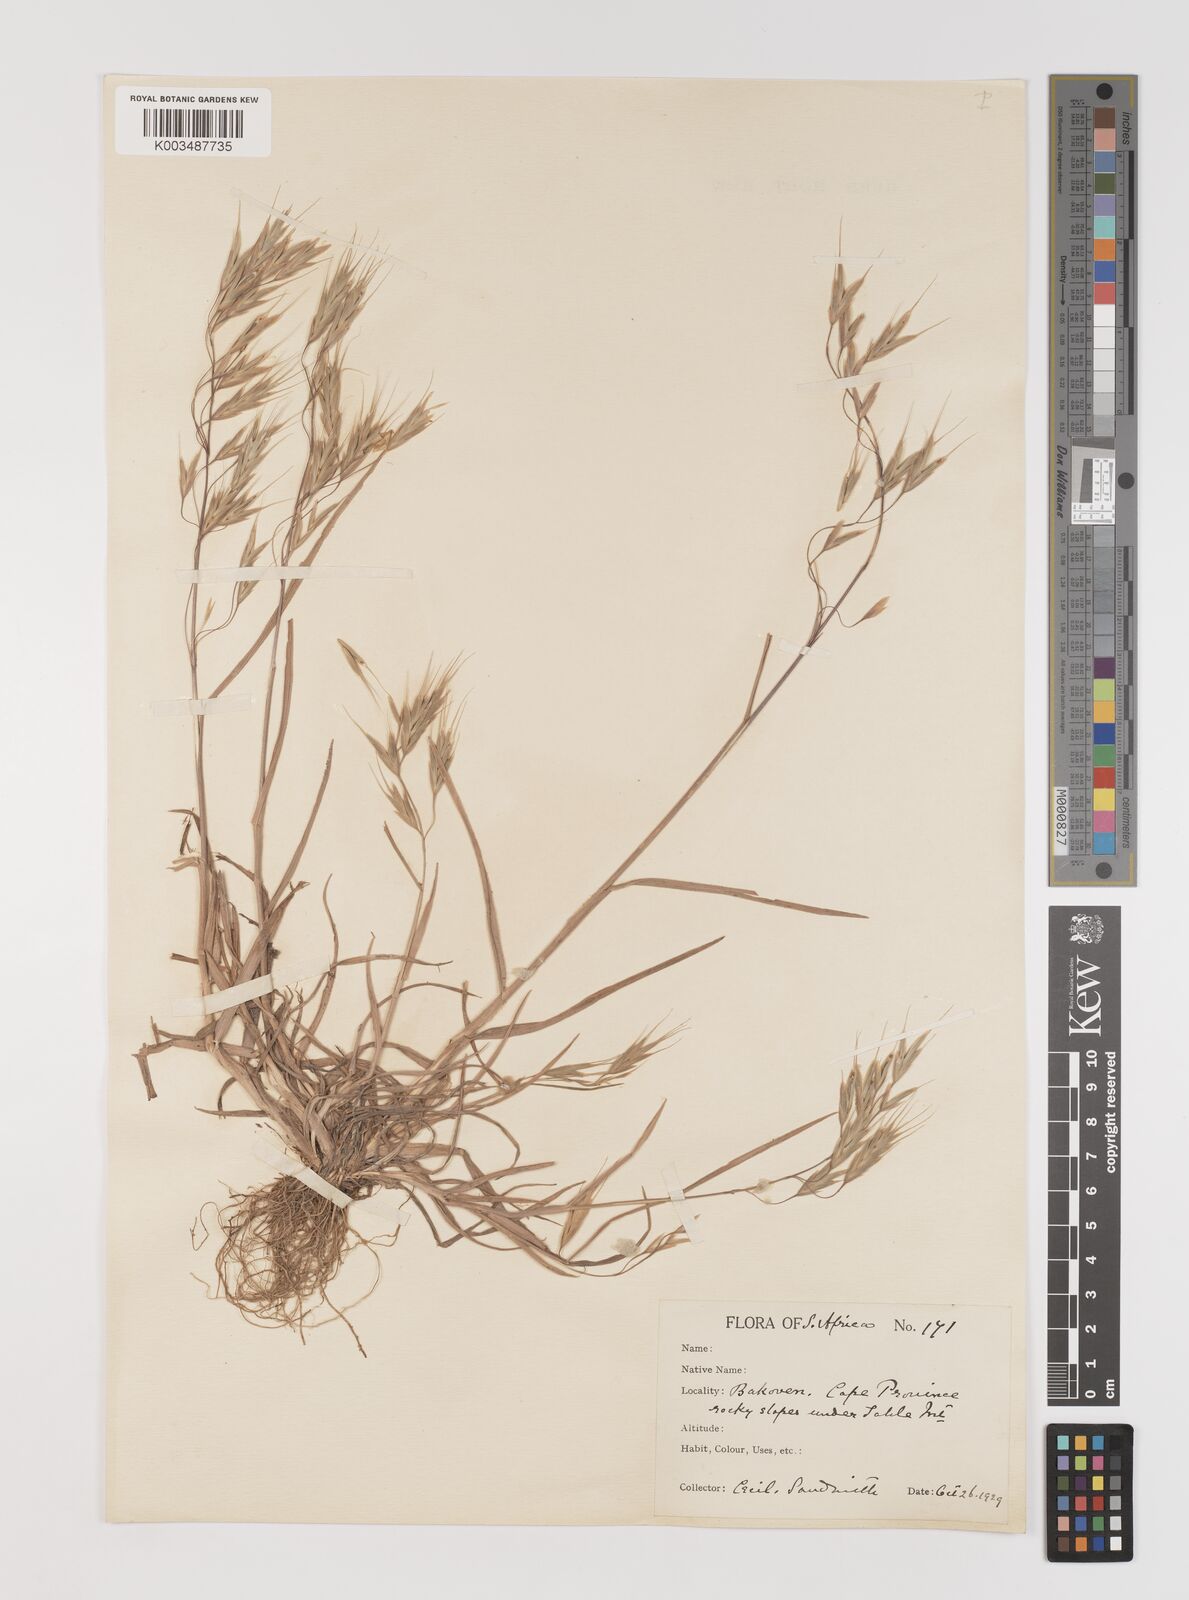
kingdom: Plantae
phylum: Tracheophyta
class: Liliopsida
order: Poales
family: Poaceae
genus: Bromus
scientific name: Bromus pectinatus
